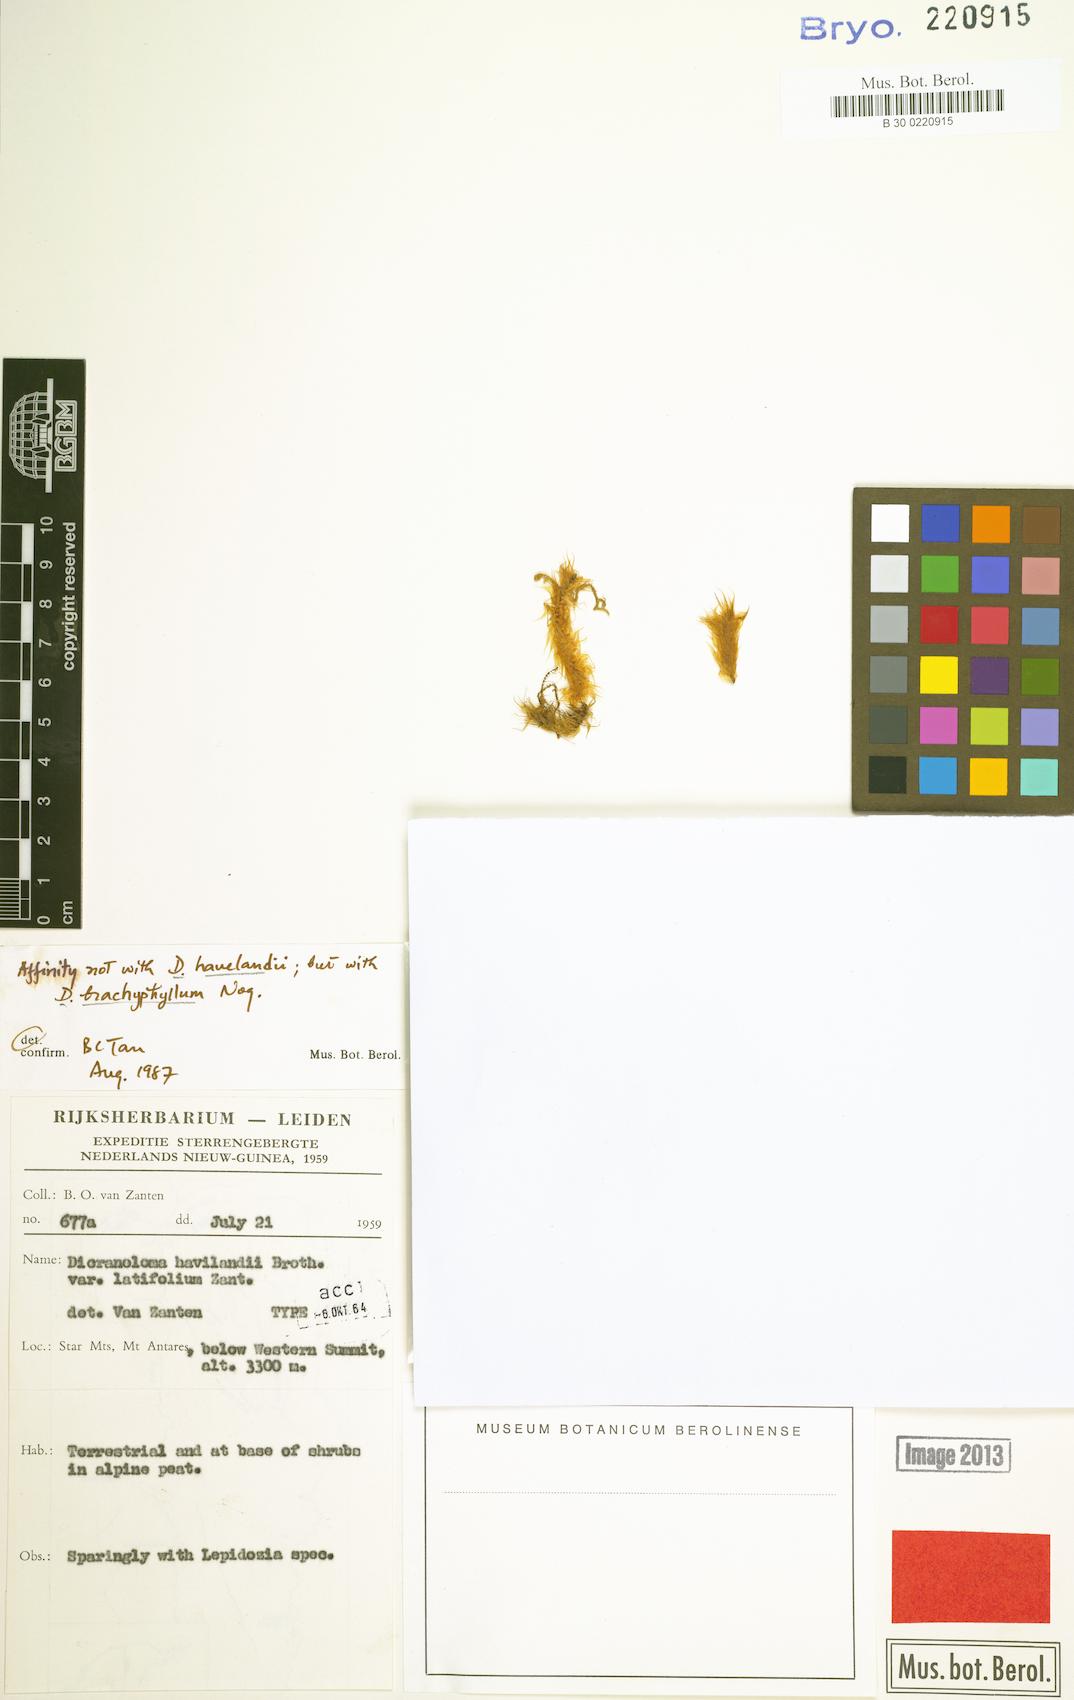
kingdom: Plantae
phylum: Bryophyta
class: Bryopsida
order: Dicranales
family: Dicranaceae
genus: Dicranoloma
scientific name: Dicranoloma assimile
